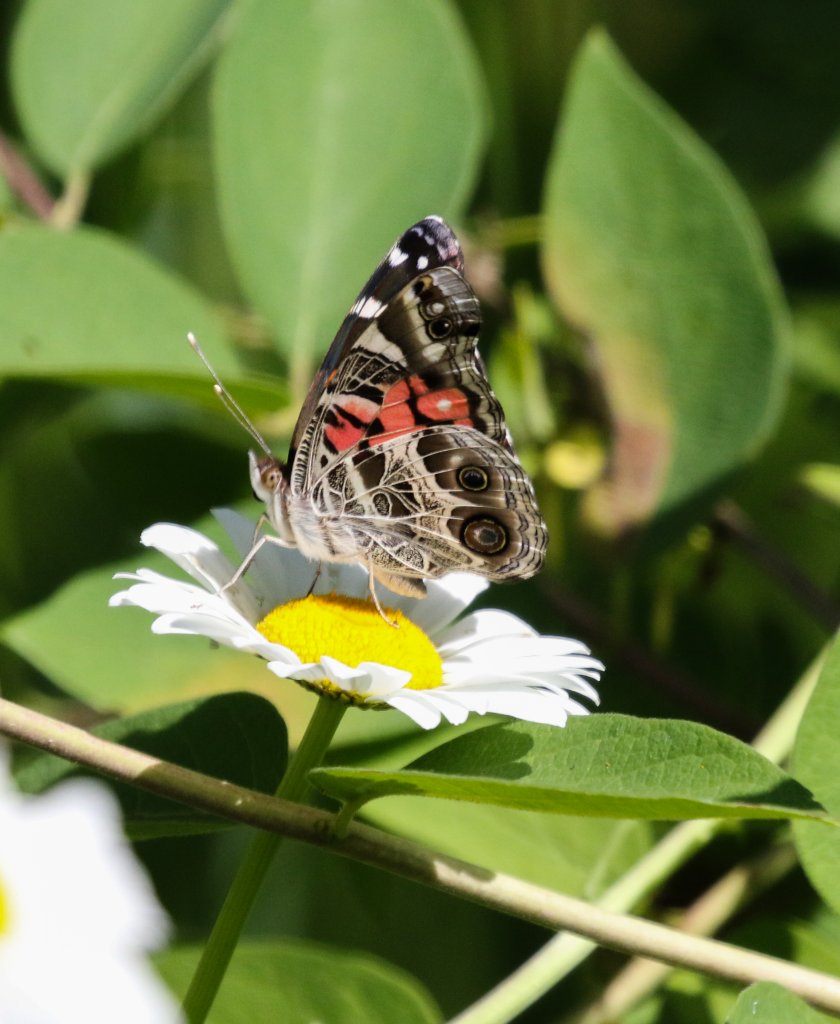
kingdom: Animalia
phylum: Arthropoda
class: Insecta
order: Lepidoptera
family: Nymphalidae
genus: Vanessa
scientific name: Vanessa virginiensis
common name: American Lady
